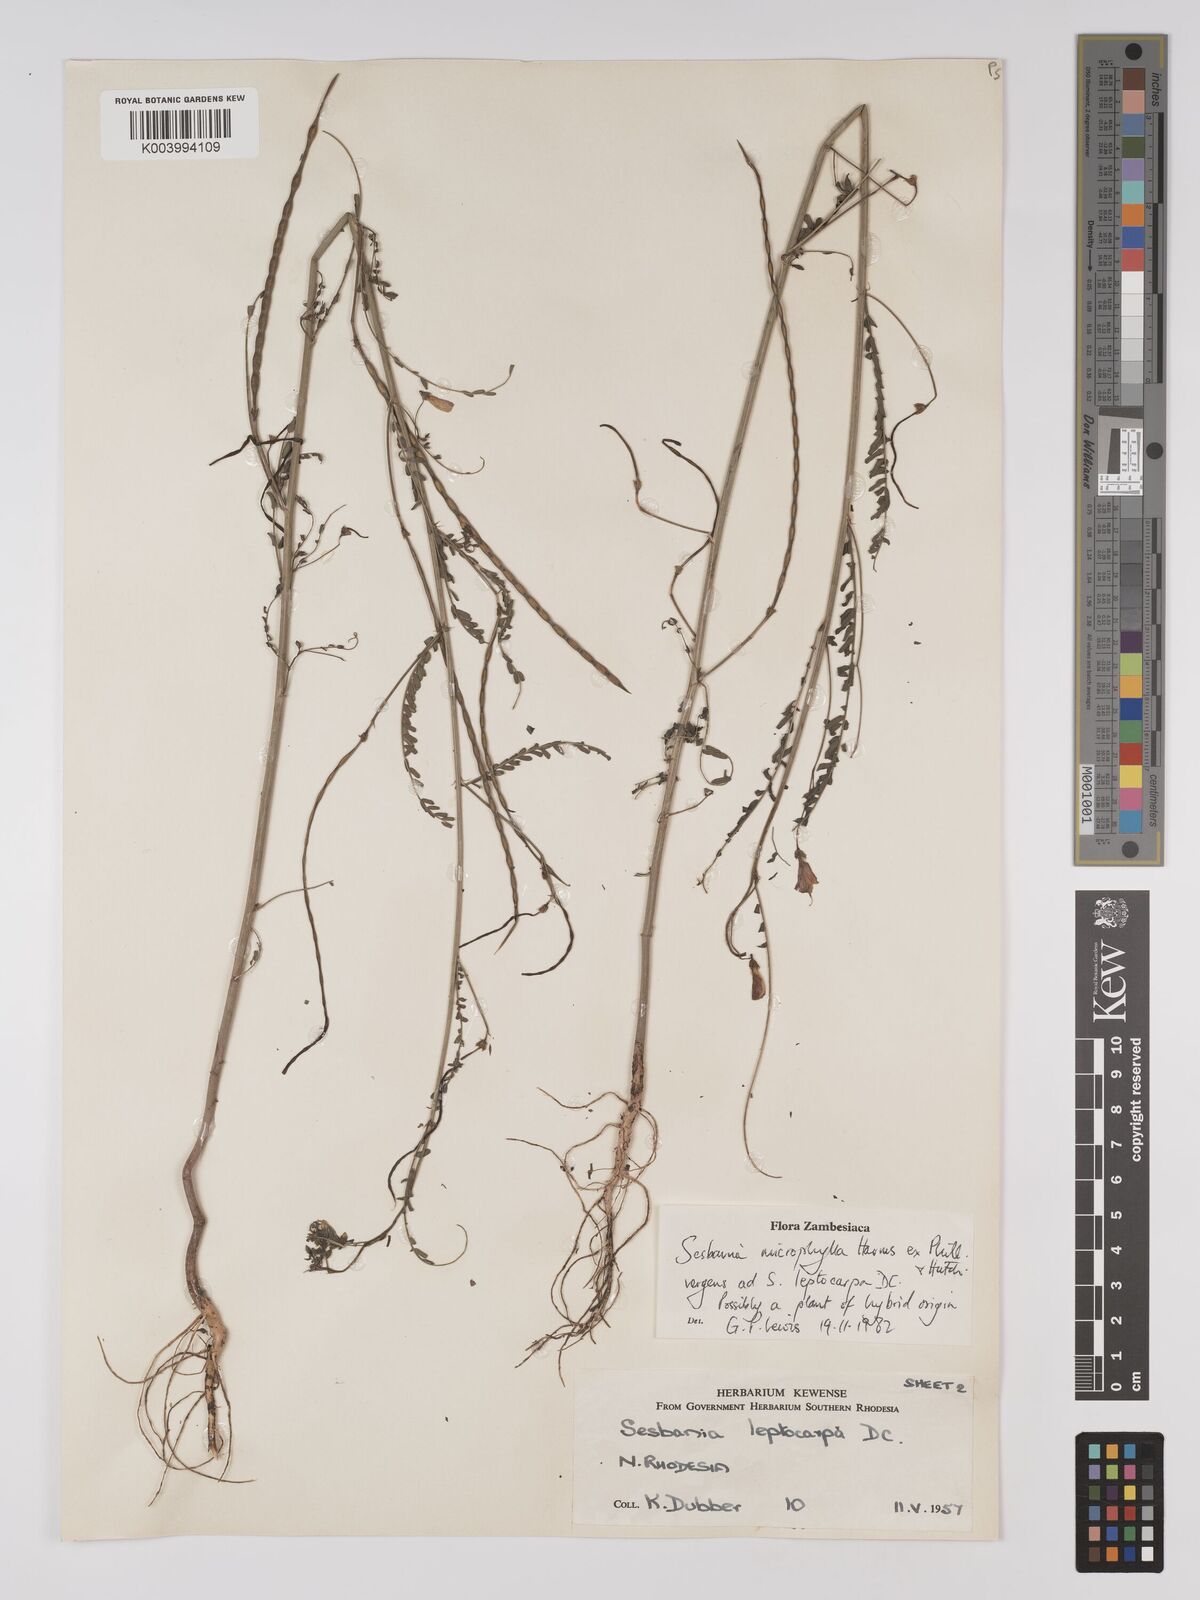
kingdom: Plantae
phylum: Tracheophyta
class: Magnoliopsida
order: Fabales
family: Fabaceae
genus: Sesbania
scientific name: Sesbania
